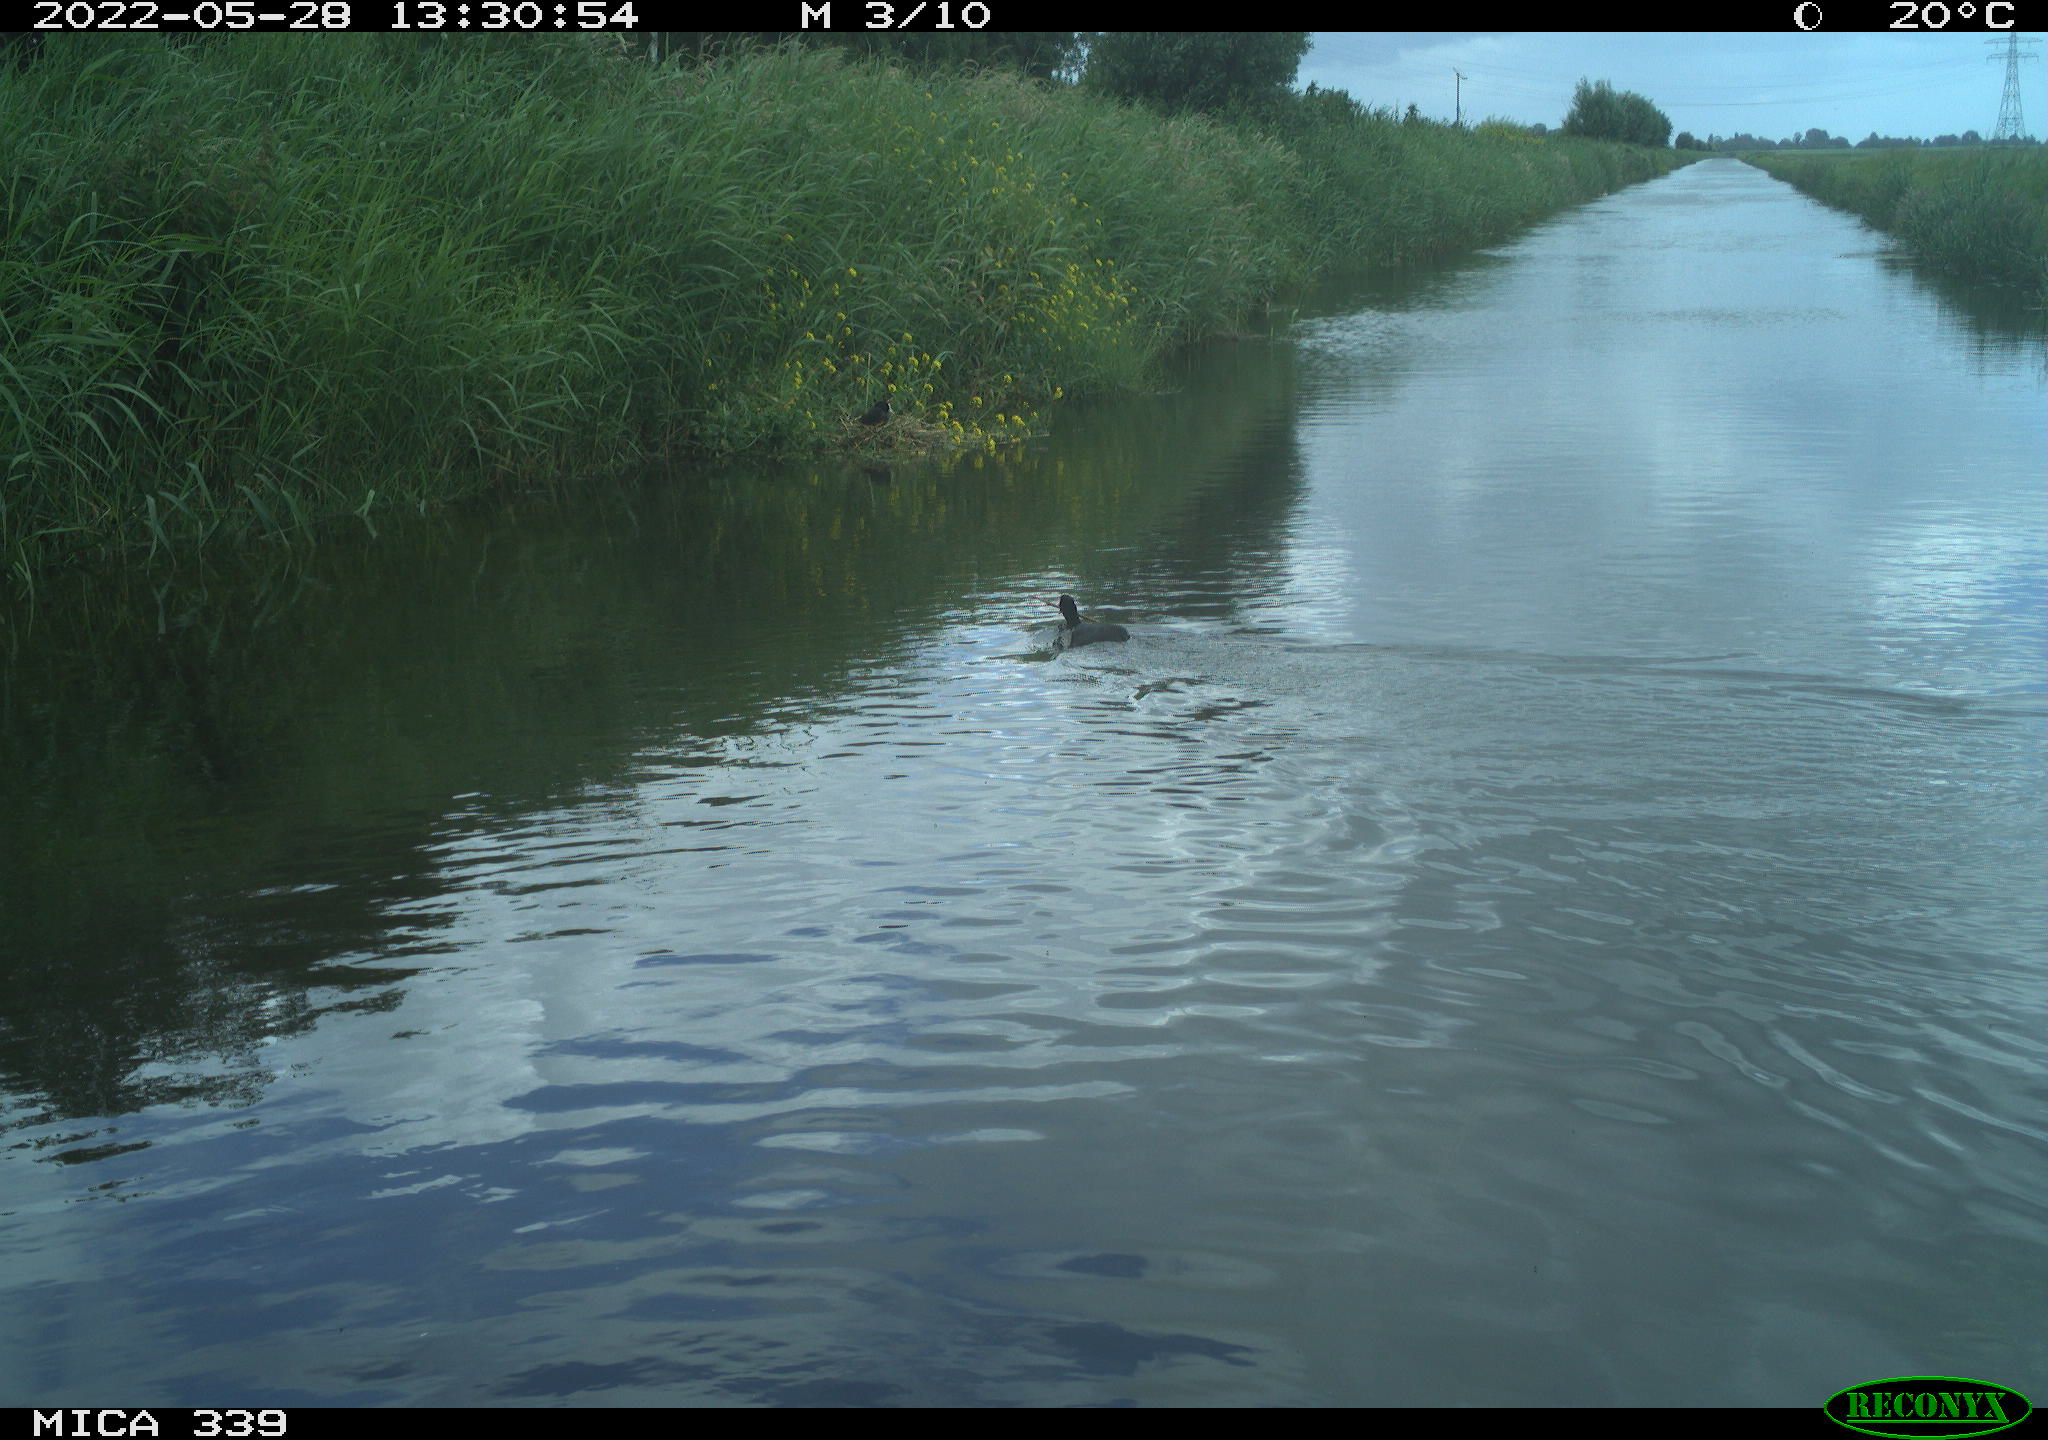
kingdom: Animalia
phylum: Chordata
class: Aves
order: Gruiformes
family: Rallidae
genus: Fulica
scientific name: Fulica atra
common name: Eurasian coot
